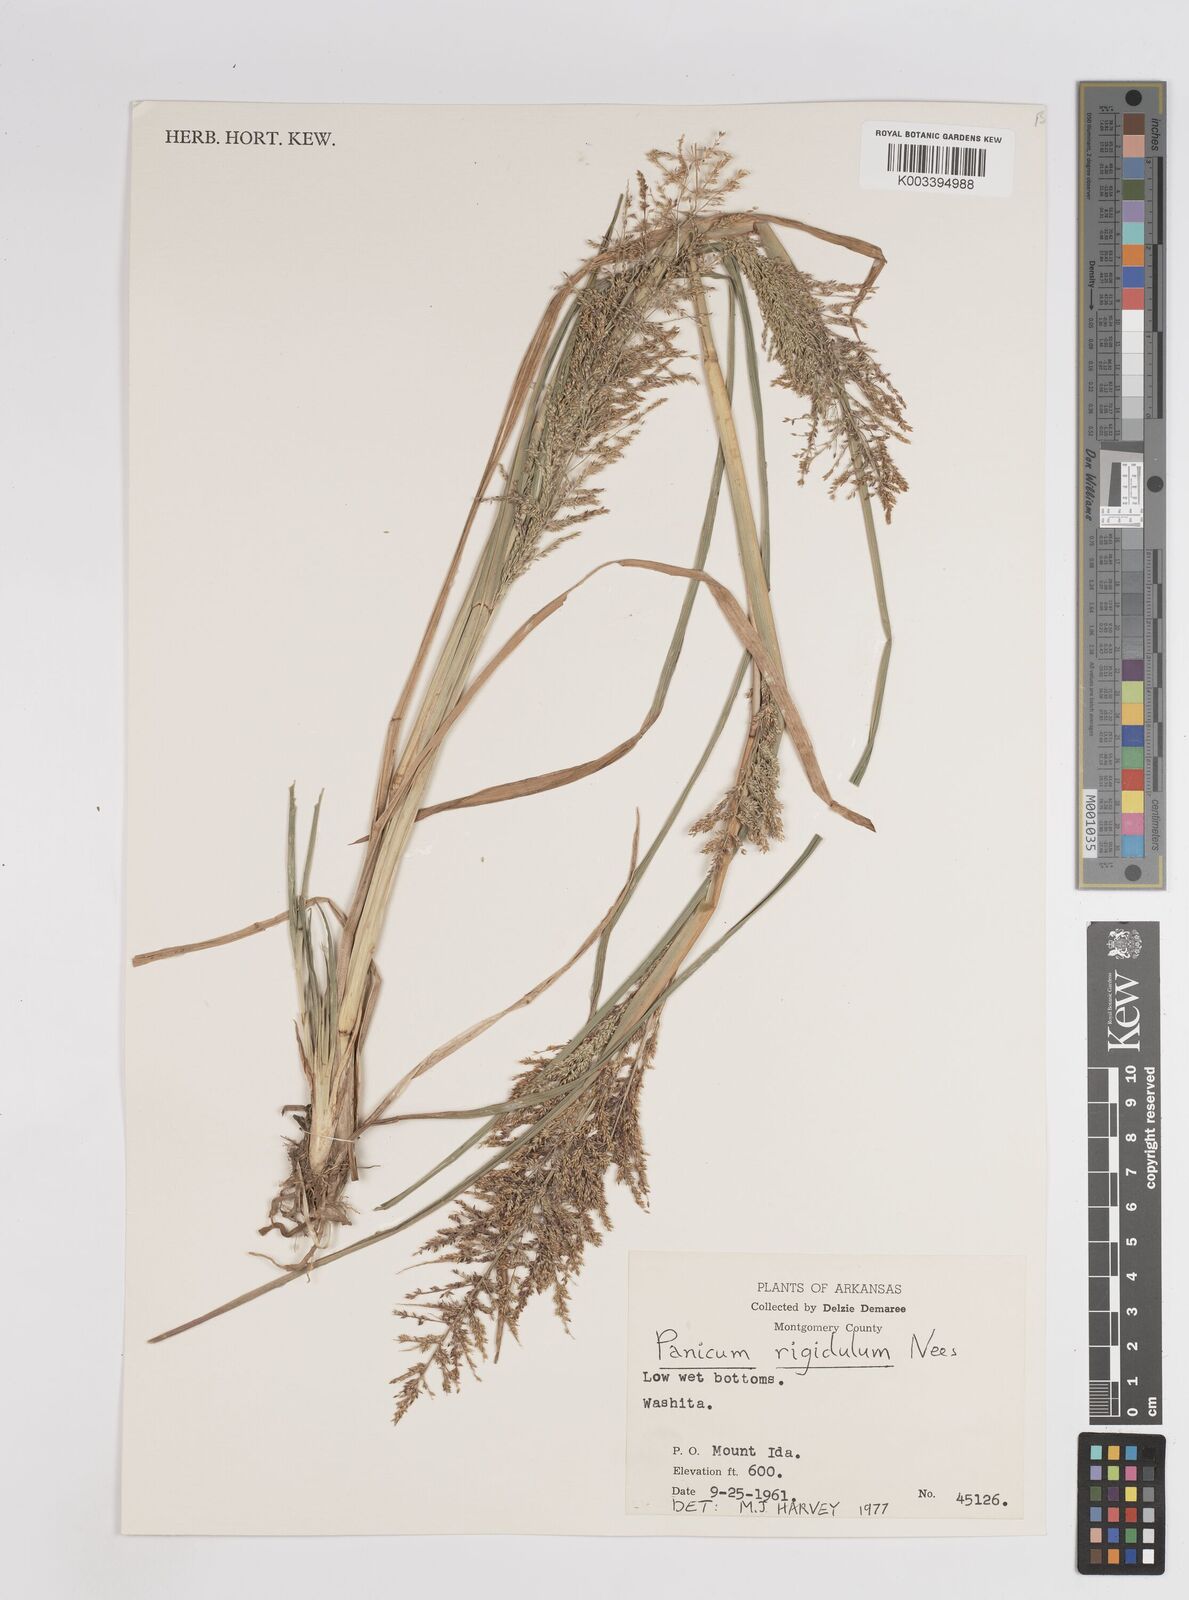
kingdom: Plantae
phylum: Tracheophyta
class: Liliopsida
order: Poales
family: Poaceae
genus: Coleataenia
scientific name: Coleataenia rigidula
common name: Redtop panicgrass
